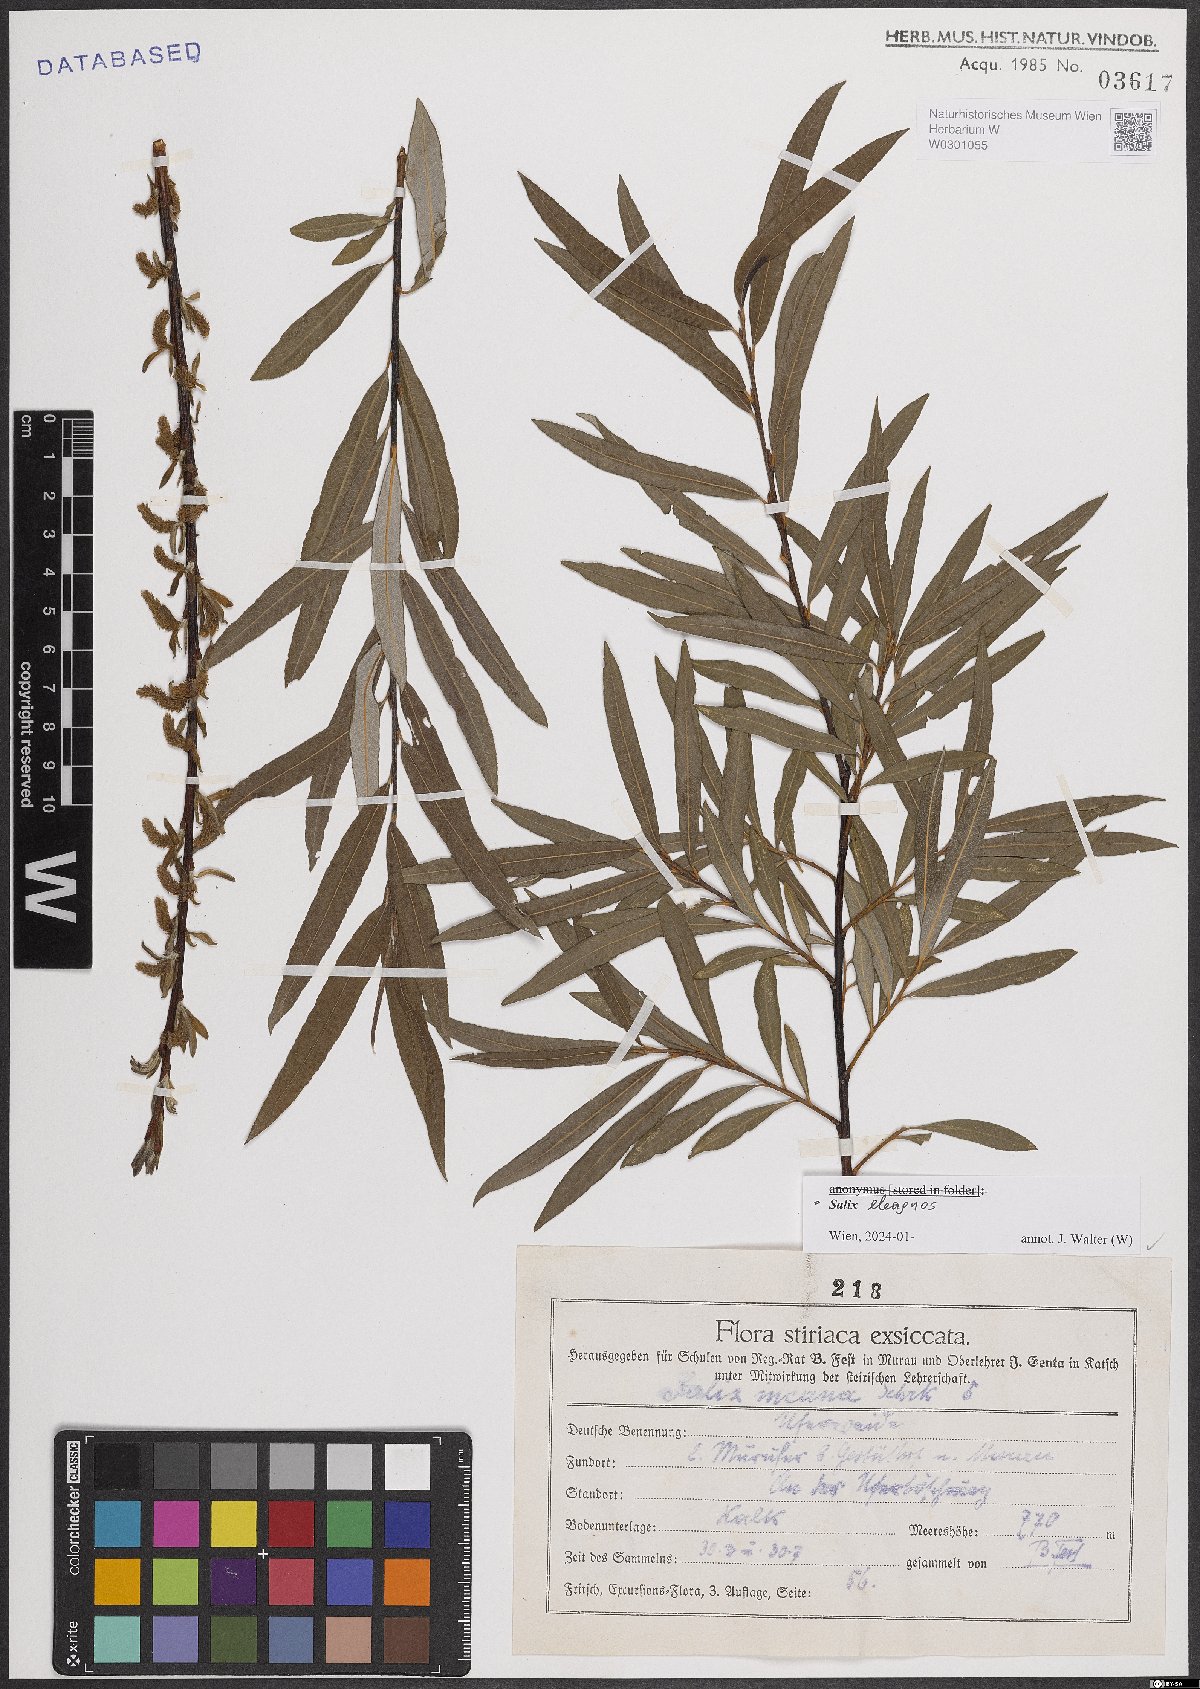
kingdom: Plantae
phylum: Tracheophyta
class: Magnoliopsida
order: Malpighiales
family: Salicaceae
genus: Salix
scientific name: Salix eleagnos
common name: Elaeagnus willow
